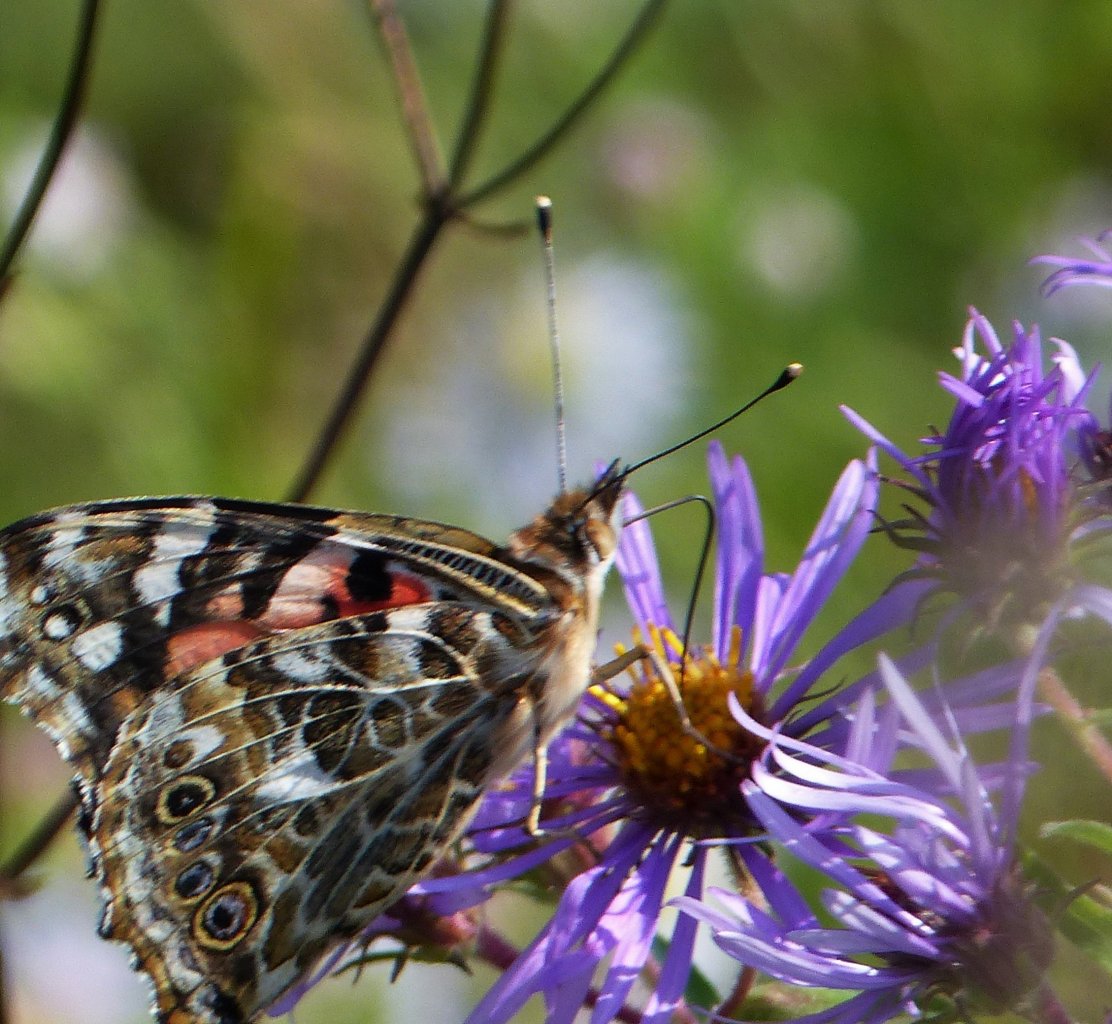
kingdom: Animalia
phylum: Arthropoda
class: Insecta
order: Lepidoptera
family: Nymphalidae
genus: Vanessa
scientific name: Vanessa cardui
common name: Painted Lady
